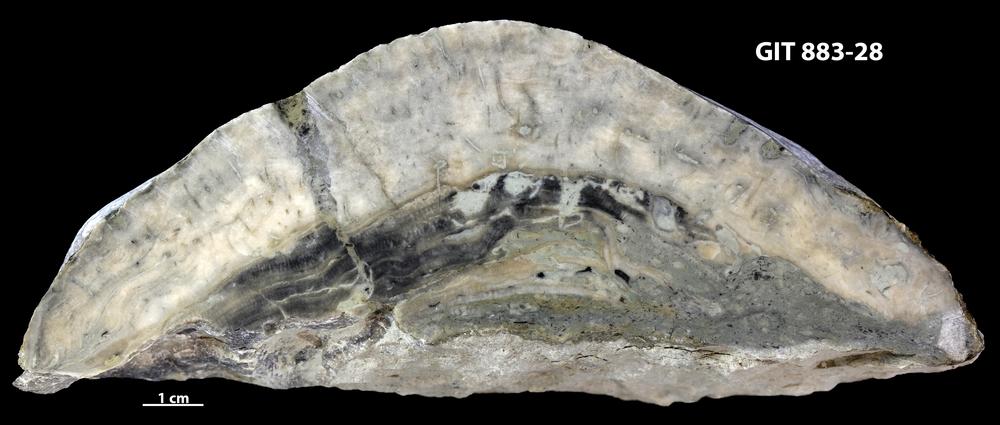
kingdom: Animalia
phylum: Porifera
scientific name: Porifera
